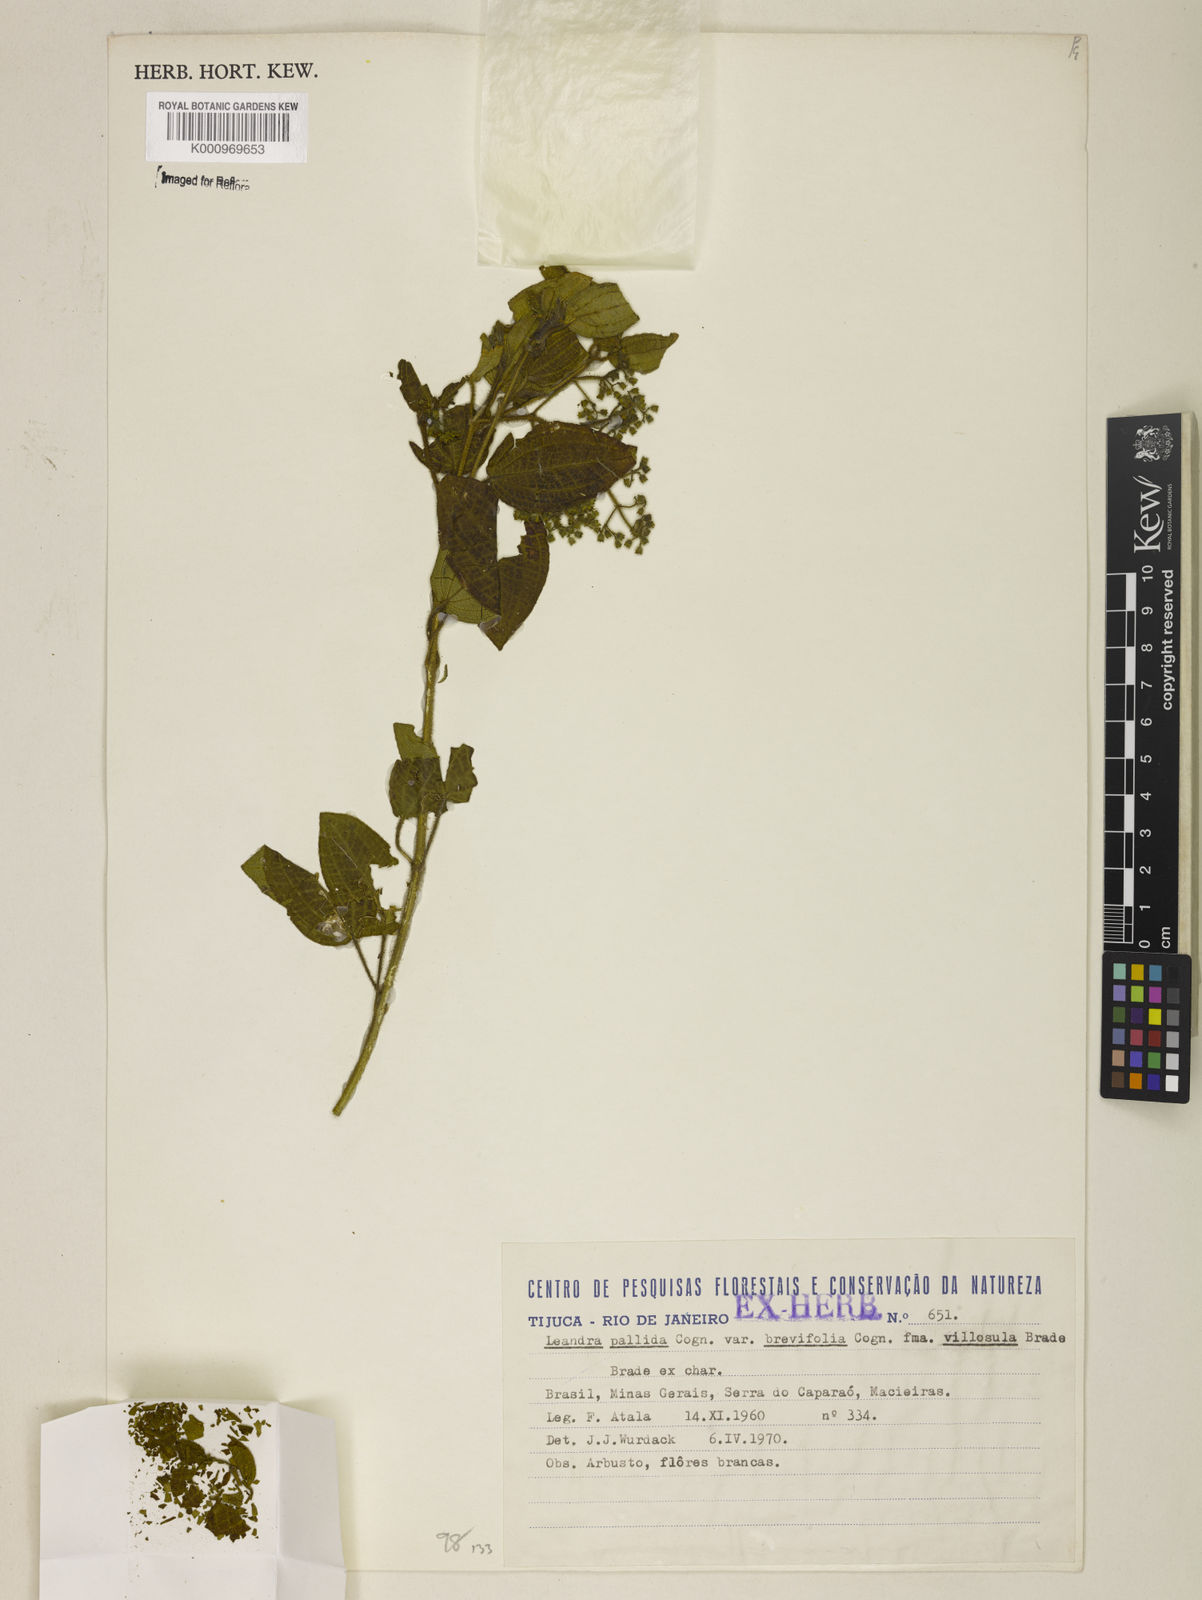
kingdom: Plantae
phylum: Tracheophyta
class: Magnoliopsida
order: Myrtales
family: Melastomataceae
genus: Miconia
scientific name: Miconia cordigera
